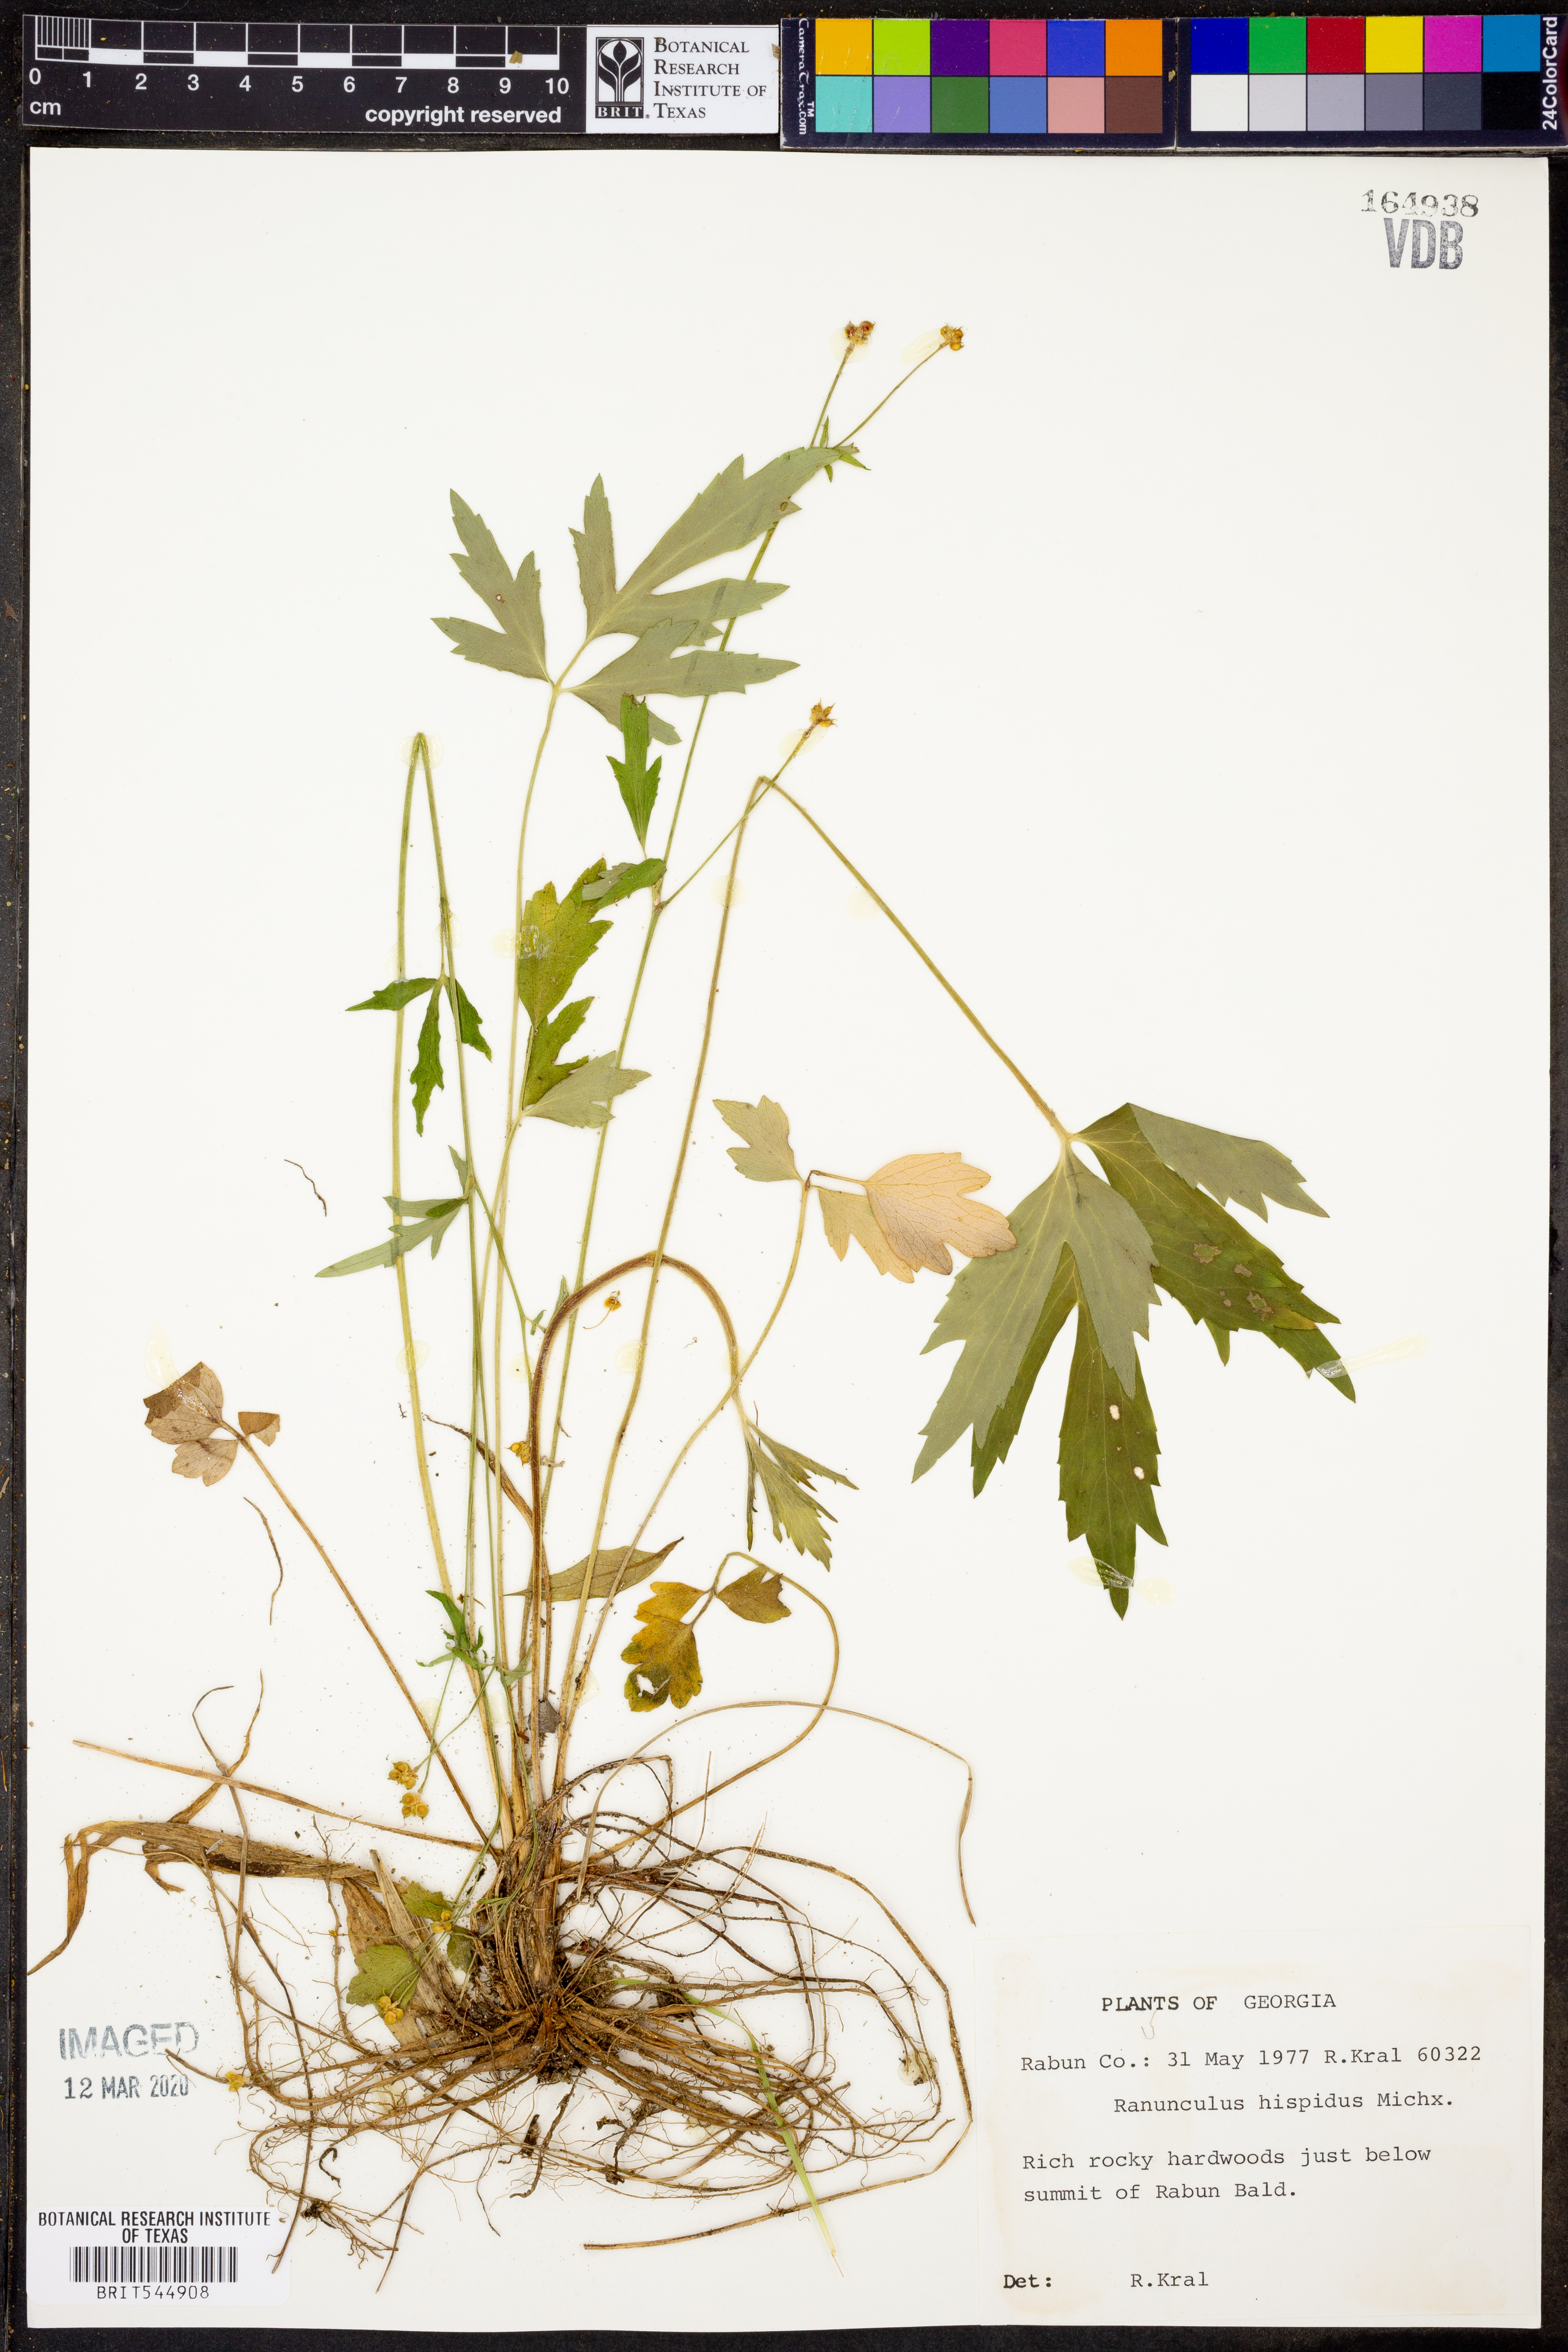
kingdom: Plantae
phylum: Tracheophyta
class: Magnoliopsida
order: Ranunculales
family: Ranunculaceae
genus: Ranunculus
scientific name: Ranunculus hispidus
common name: Bristly buttercup
